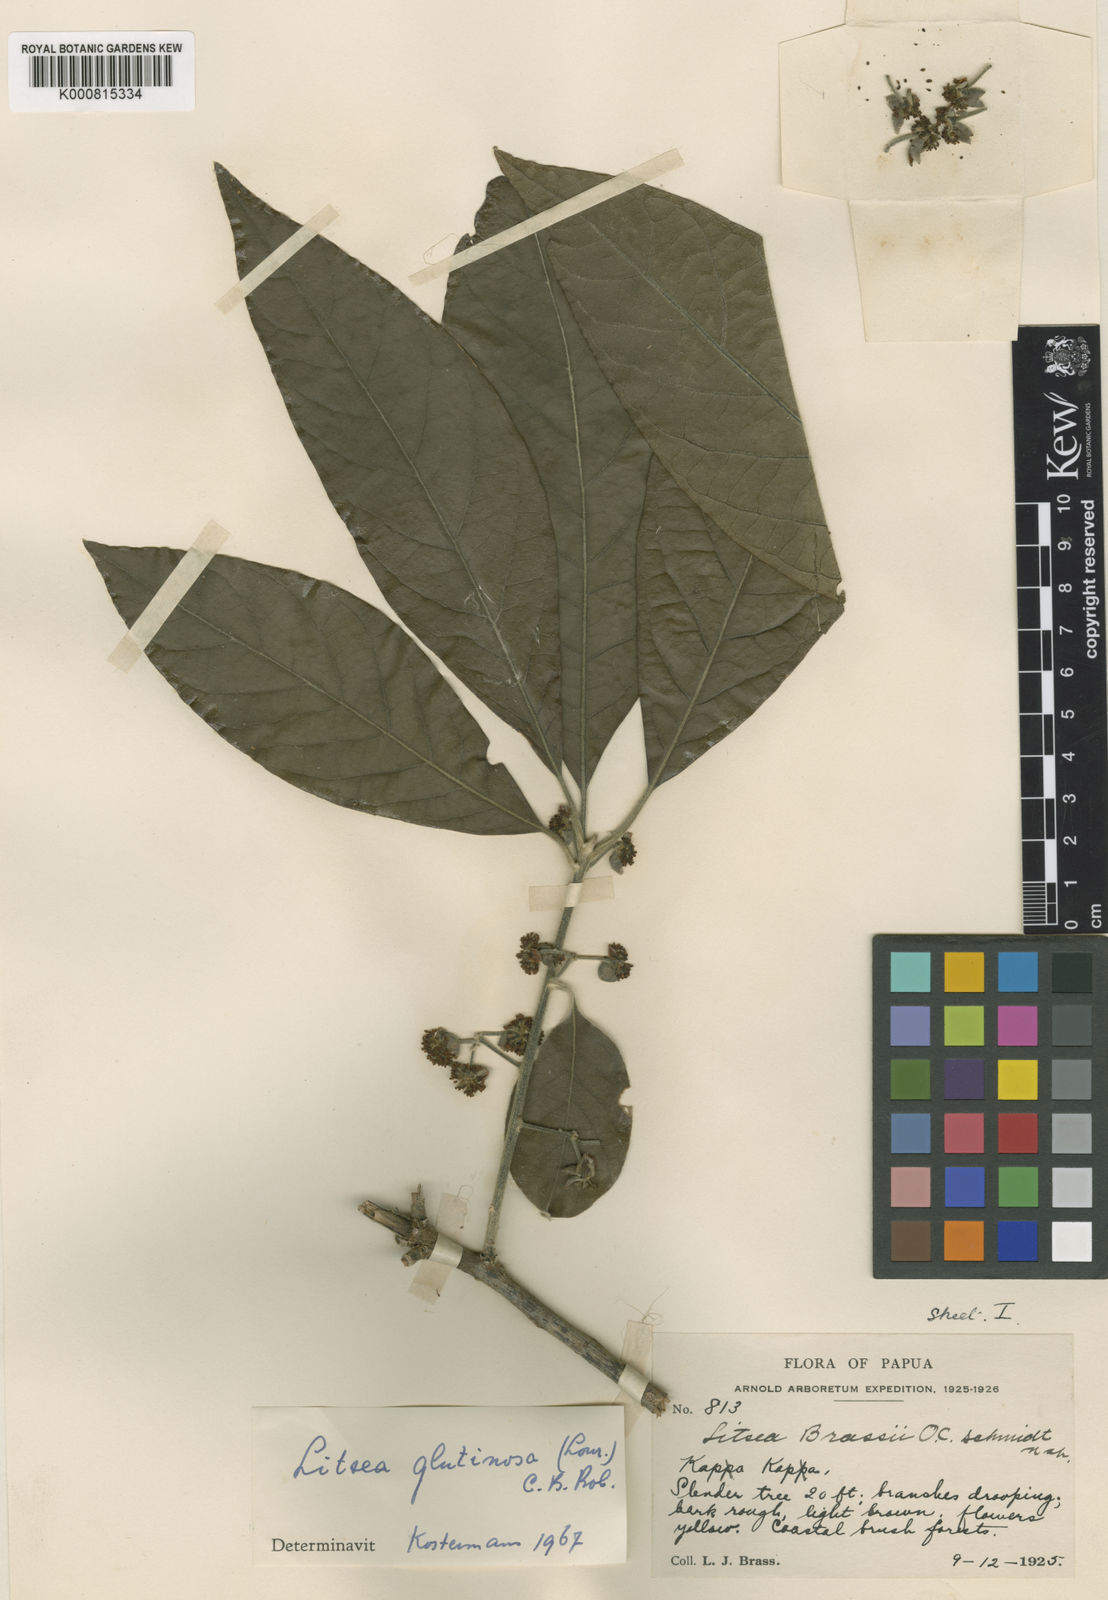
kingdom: Plantae
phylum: Tracheophyta
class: Magnoliopsida
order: Laurales
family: Lauraceae
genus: Litsea
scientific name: Litsea glutinosa
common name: Indian-laurel
